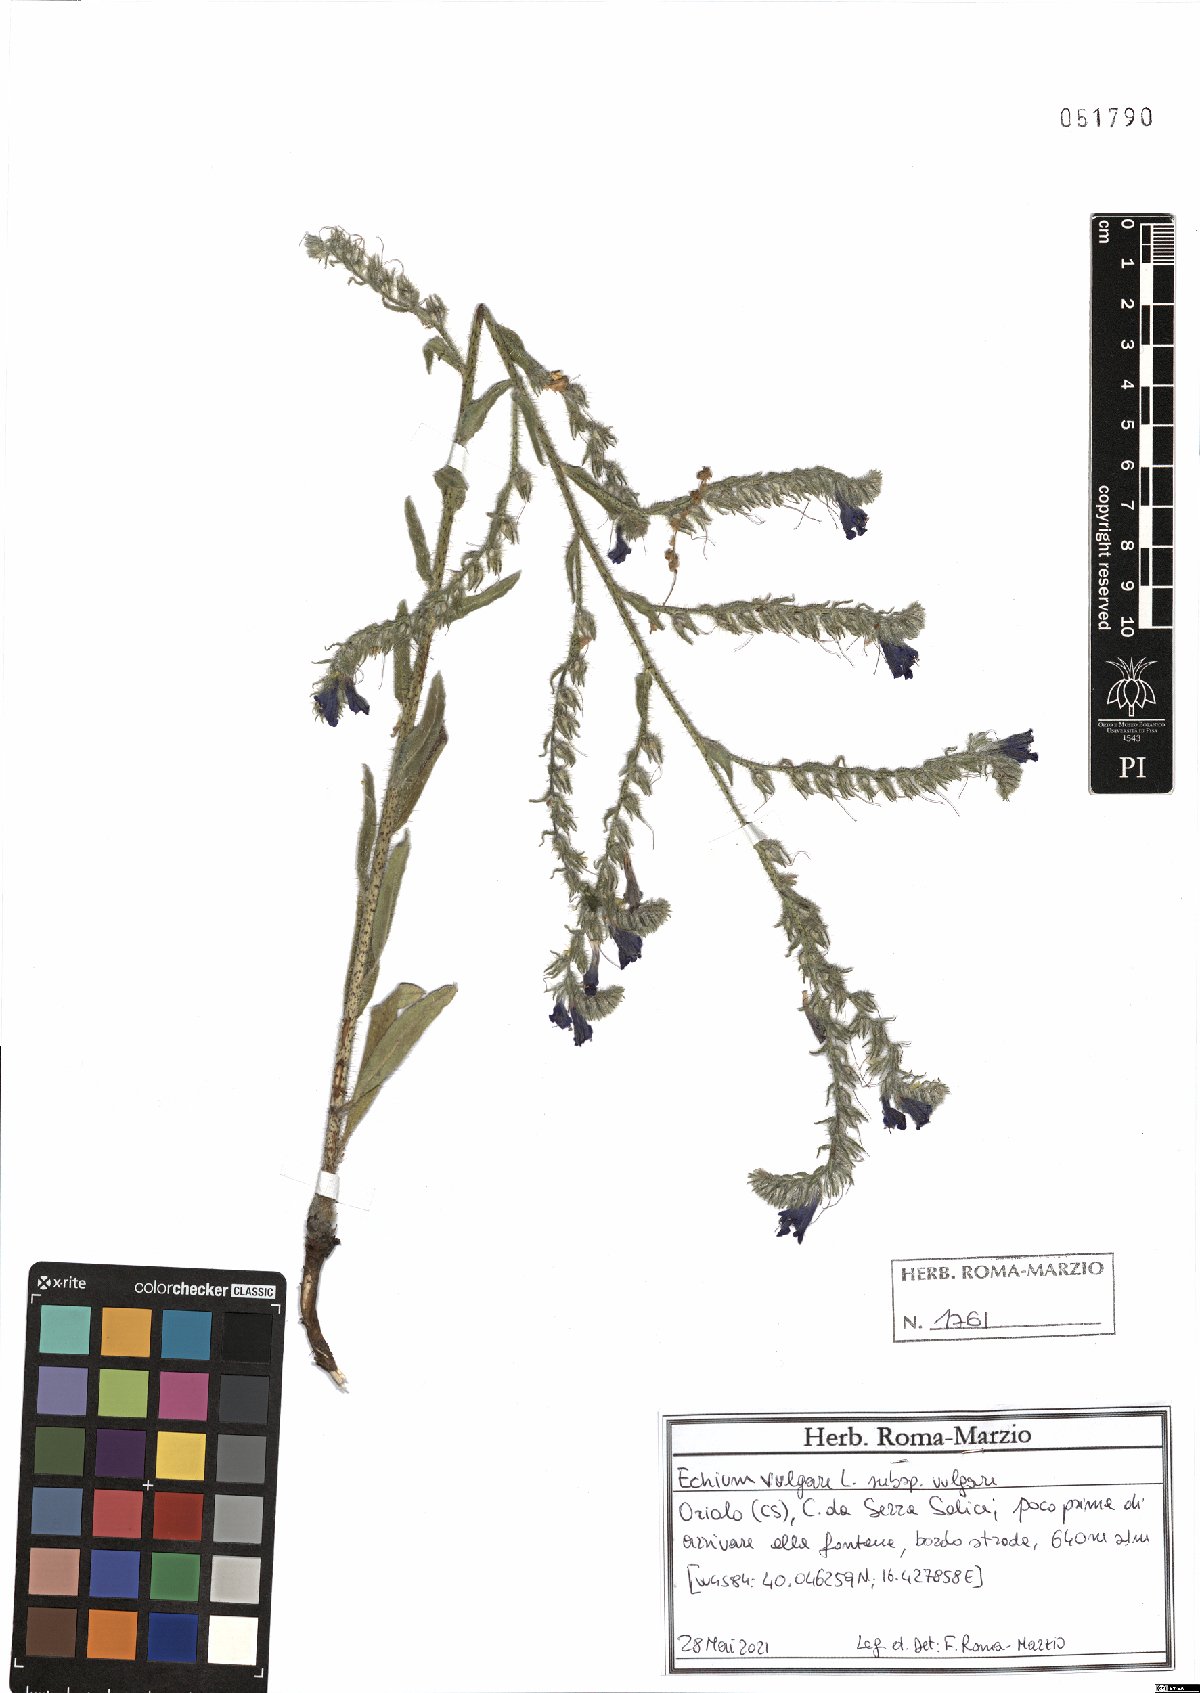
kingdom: Plantae
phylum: Tracheophyta
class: Magnoliopsida
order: Boraginales
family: Boraginaceae
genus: Echium
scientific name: Echium vulgare
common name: Common viper's bugloss
